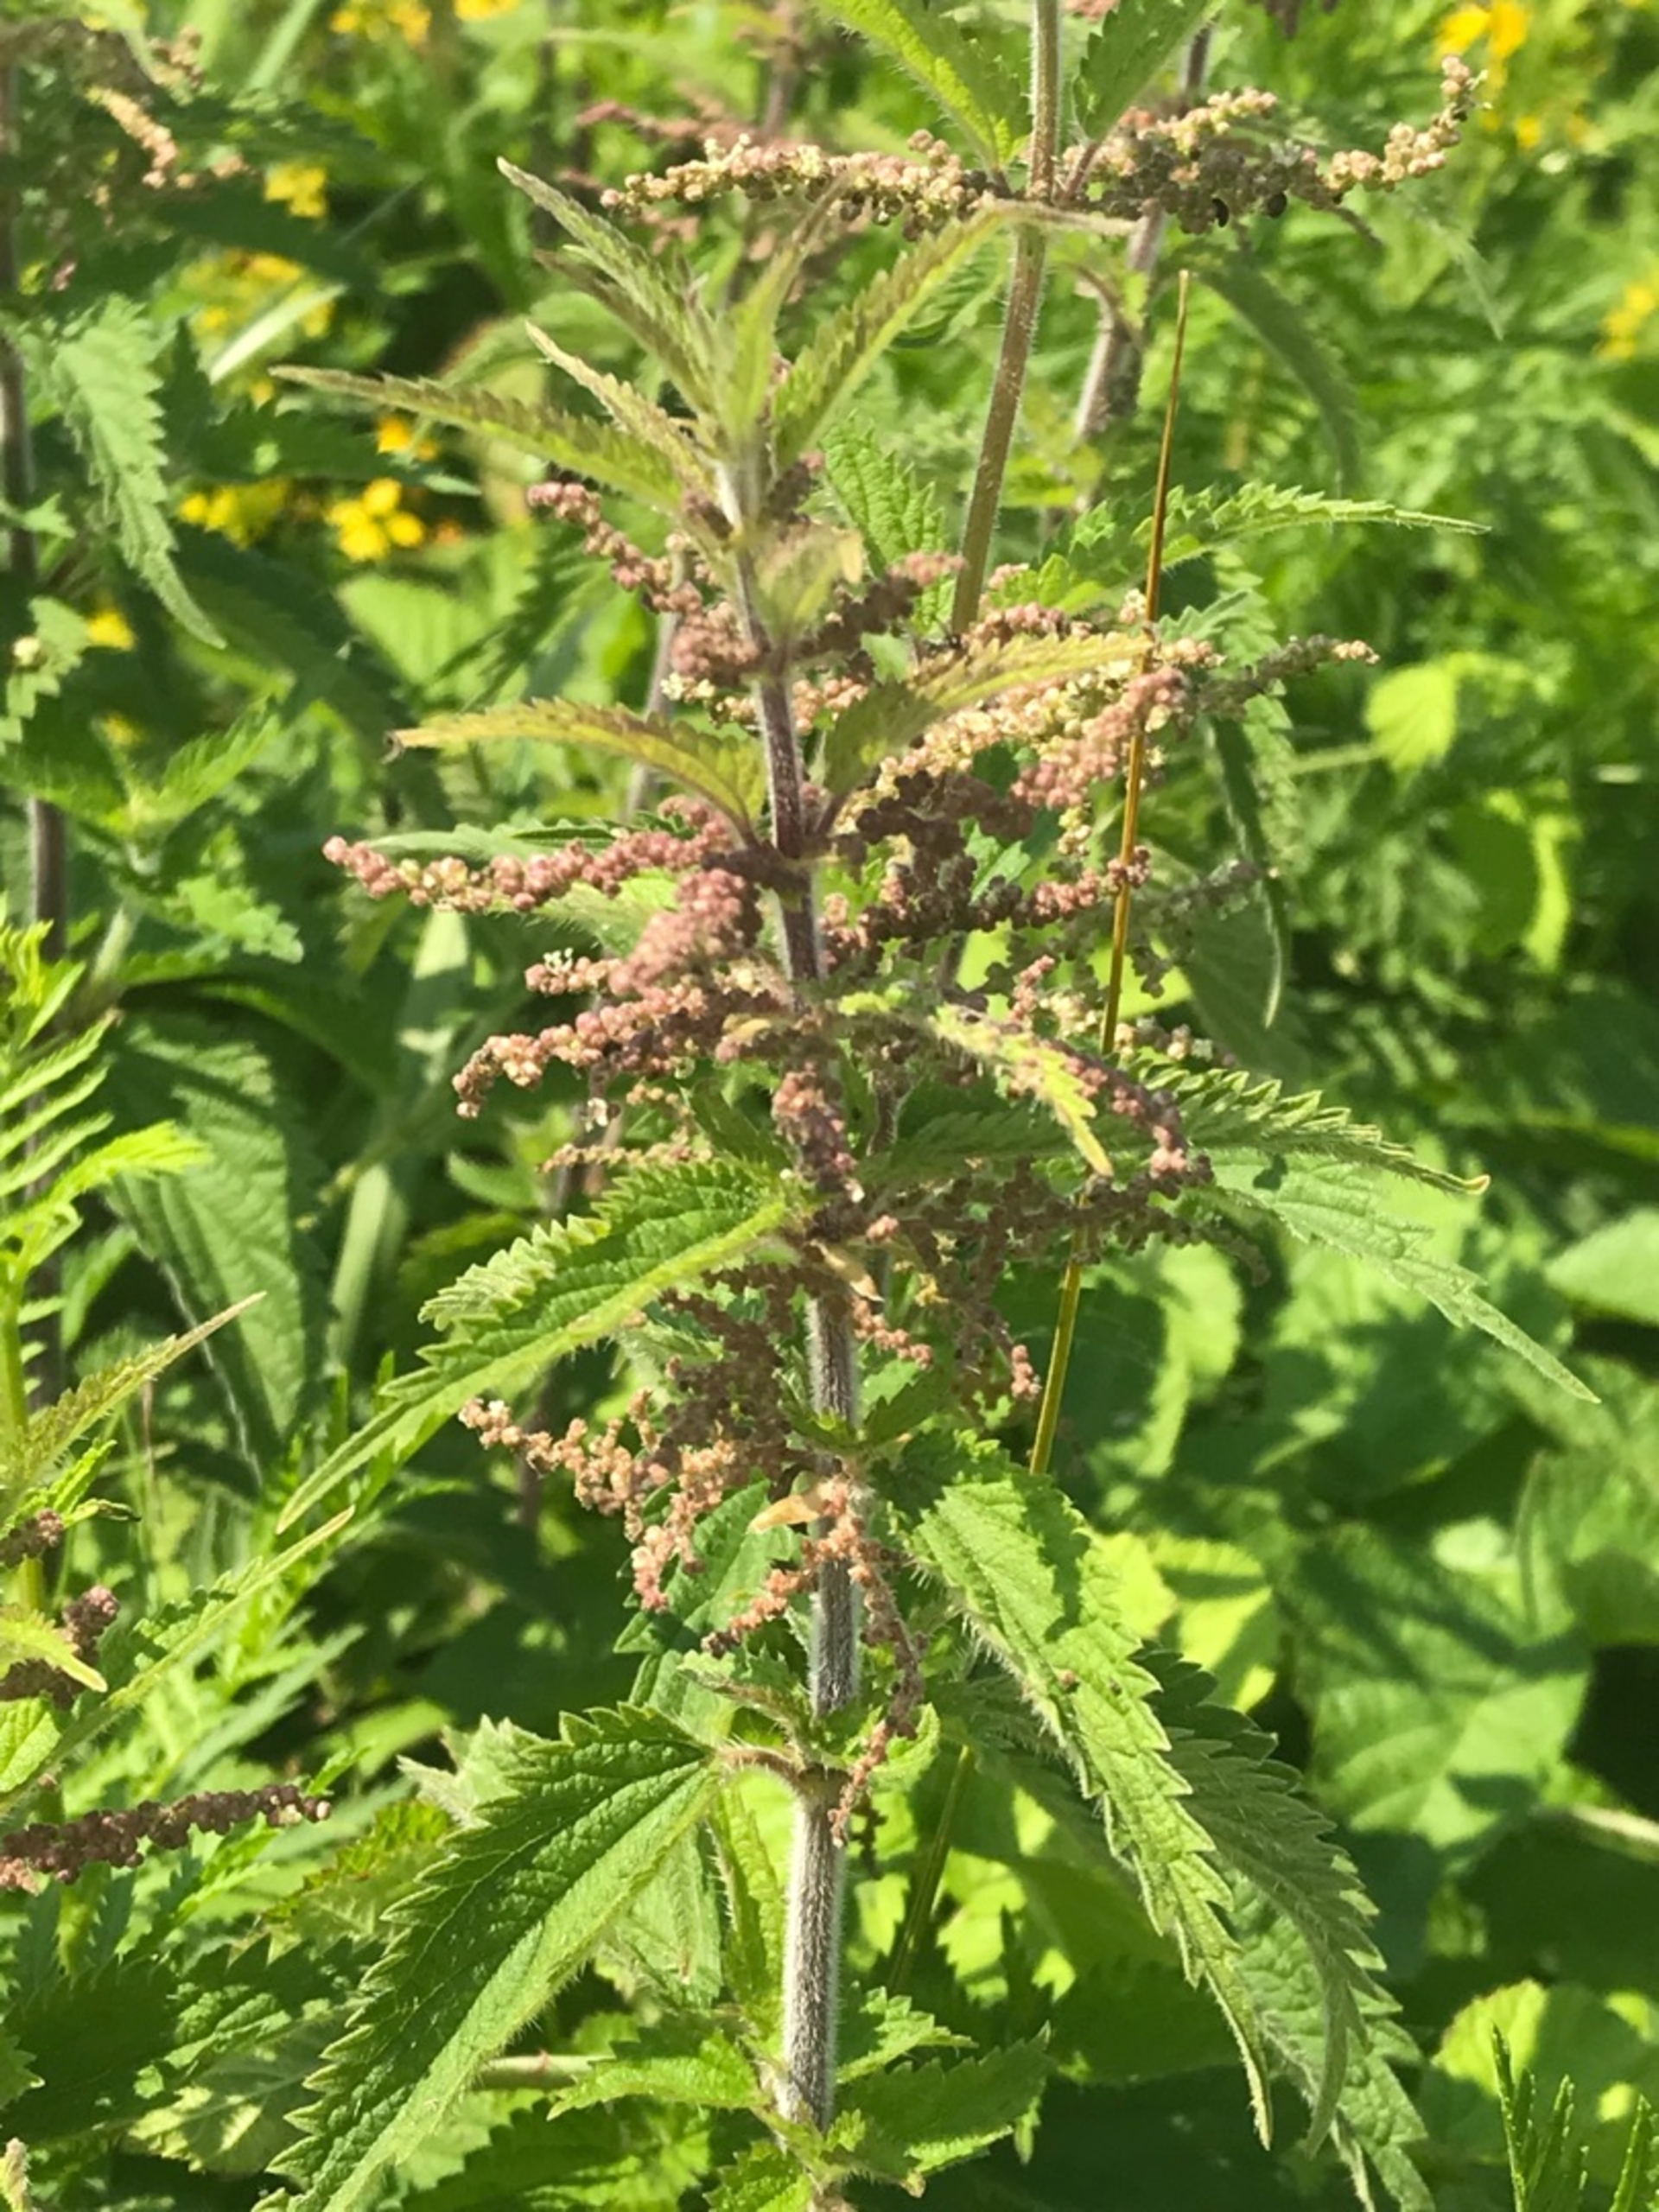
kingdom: Plantae
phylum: Tracheophyta
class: Magnoliopsida
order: Rosales
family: Urticaceae
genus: Urtica
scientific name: Urtica dioica
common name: Stor nælde
